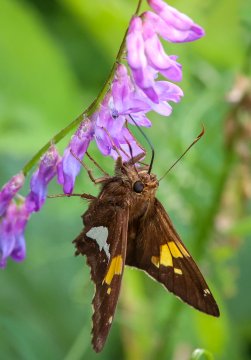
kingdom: Animalia
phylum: Arthropoda
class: Insecta
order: Lepidoptera
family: Hesperiidae
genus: Epargyreus
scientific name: Epargyreus clarus
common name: Silver-spotted Skipper
